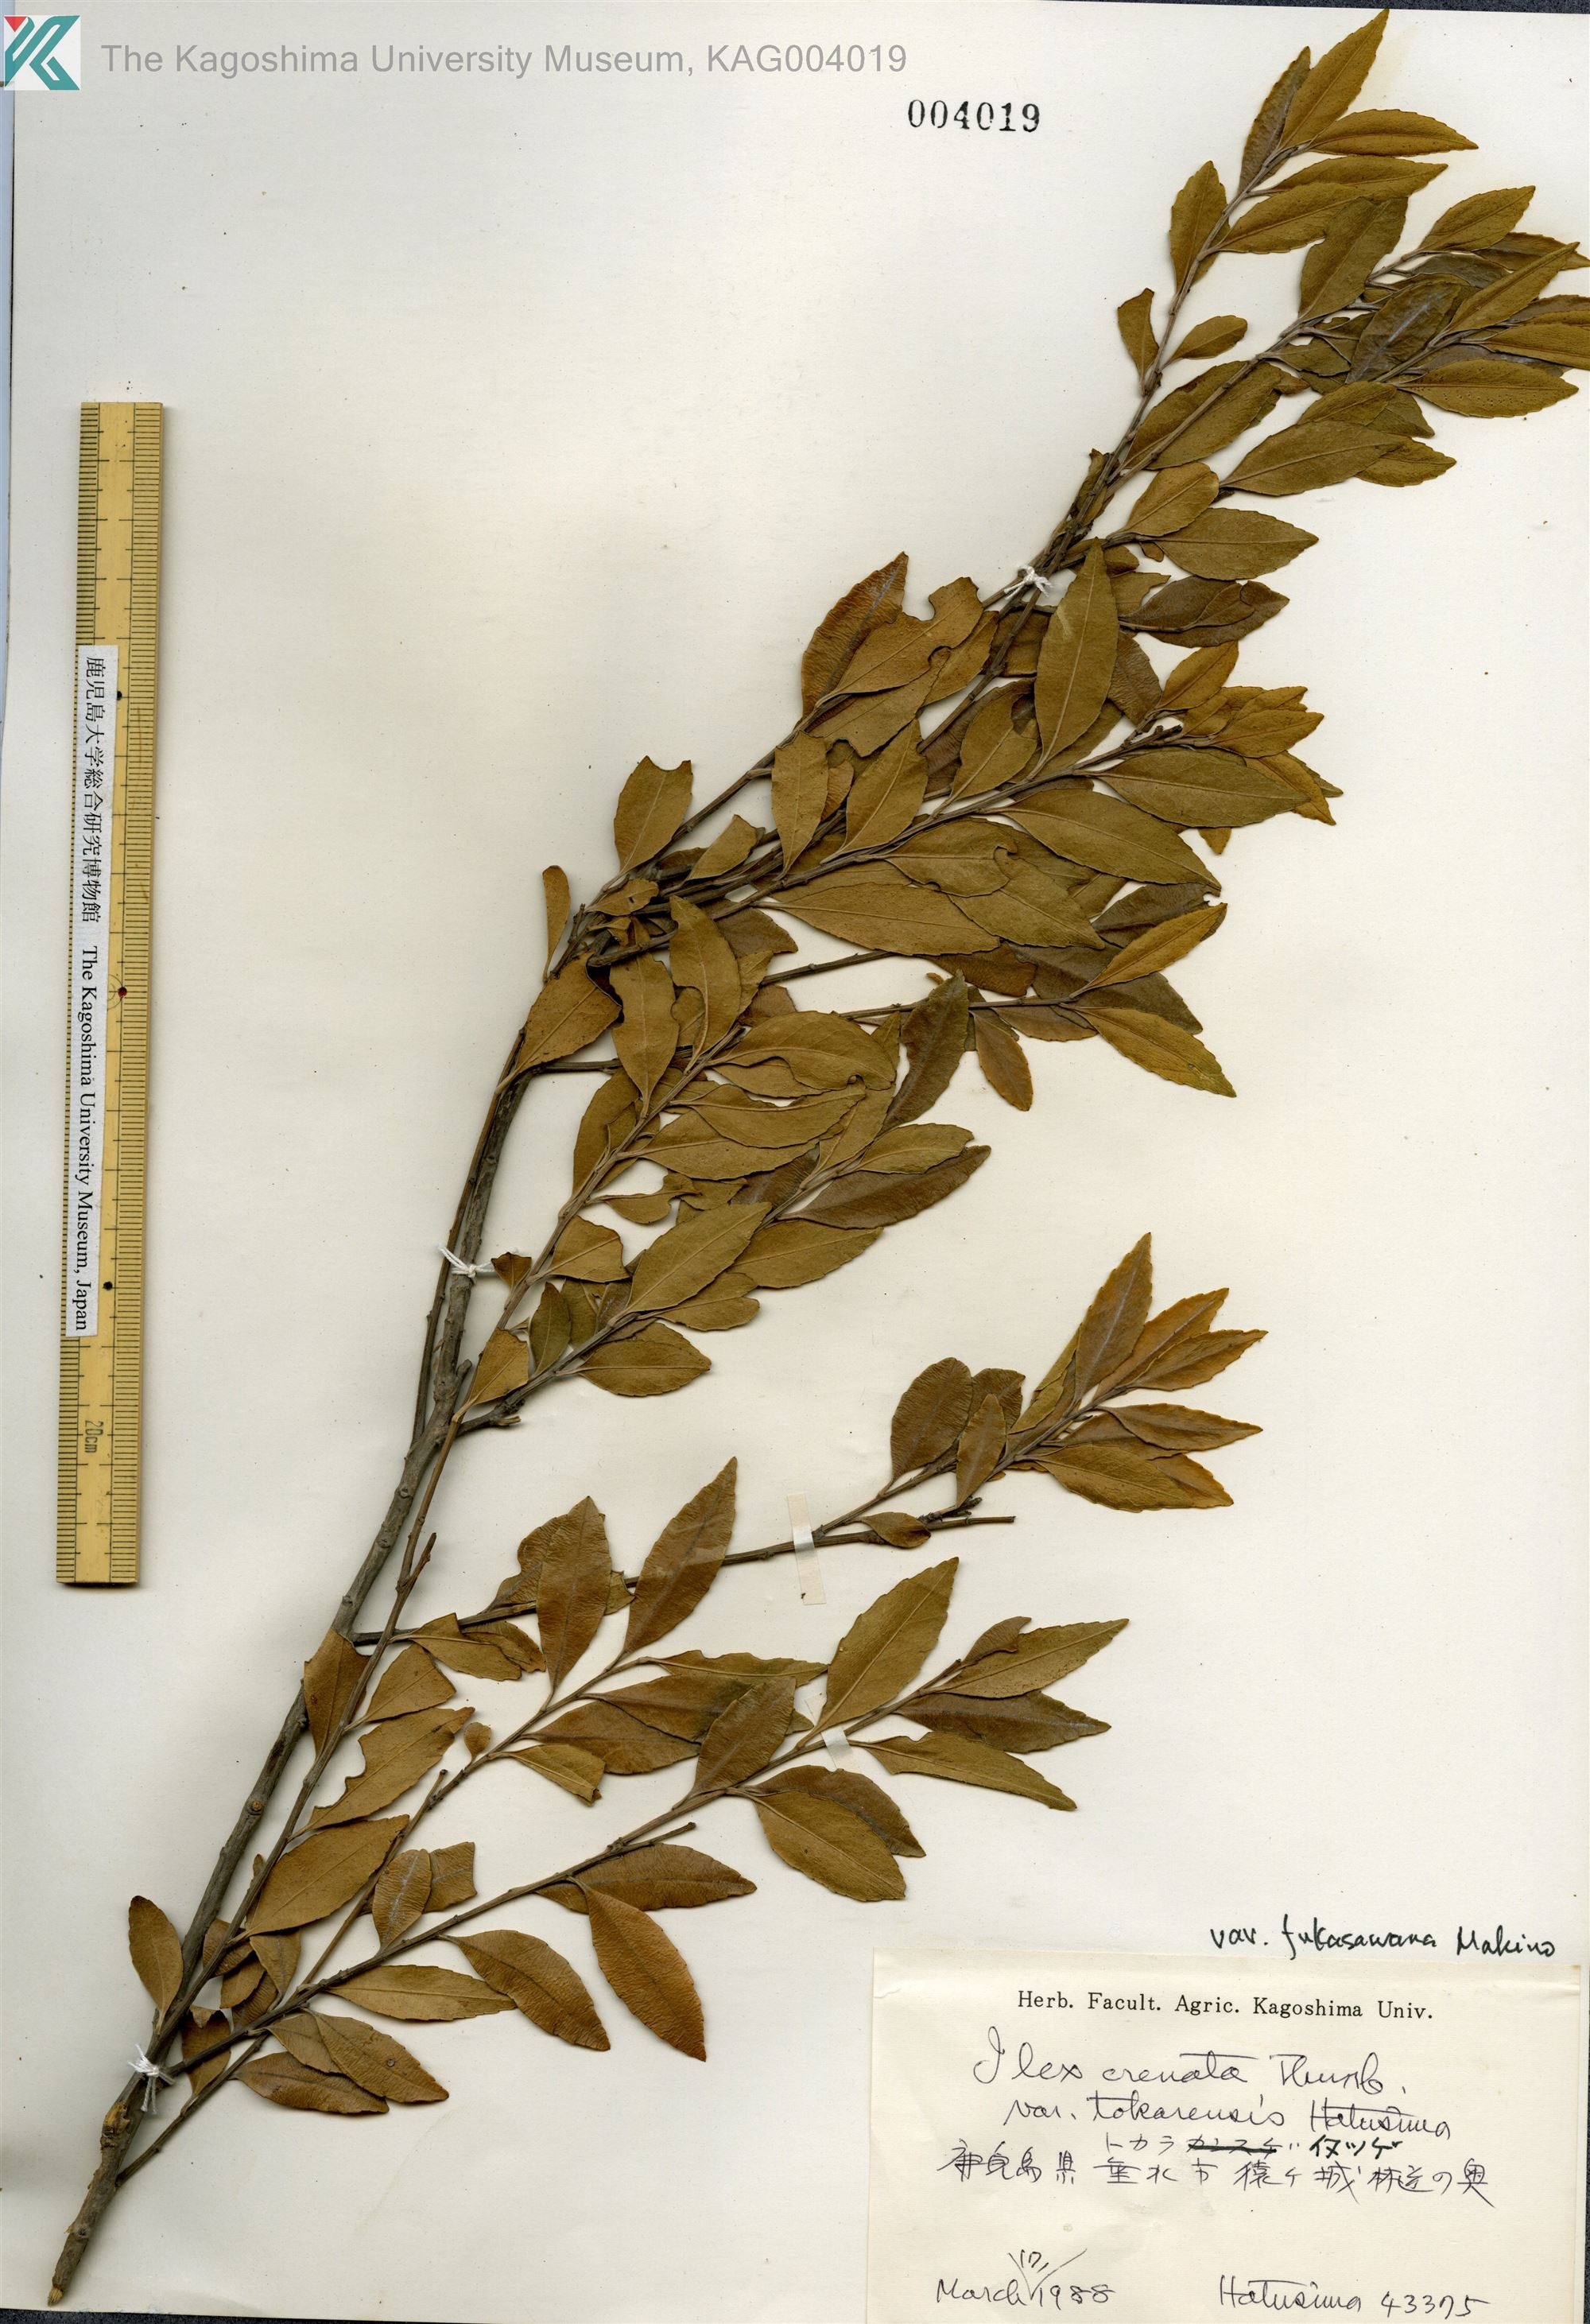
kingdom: Plantae
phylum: Tracheophyta
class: Magnoliopsida
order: Aquifoliales
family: Aquifoliaceae
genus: Ilex
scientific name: Ilex crenata
